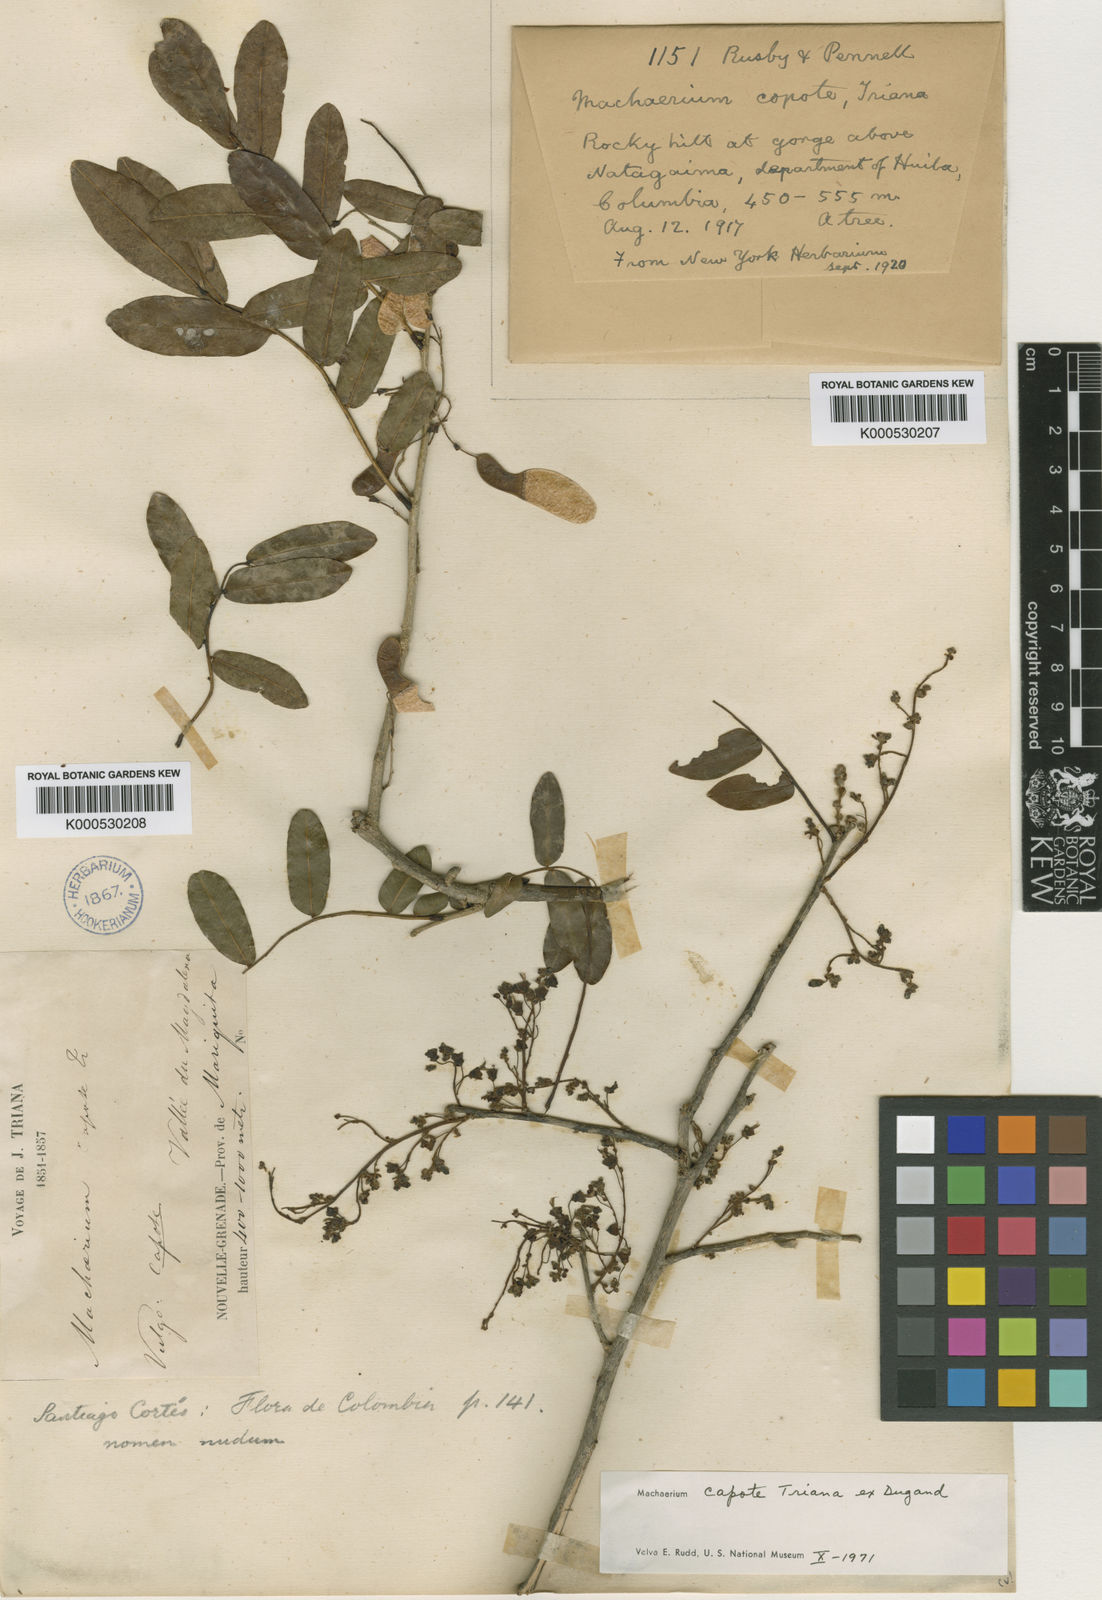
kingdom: Plantae
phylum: Tracheophyta
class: Magnoliopsida
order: Fabales
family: Fabaceae
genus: Machaerium
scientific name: Machaerium capote
